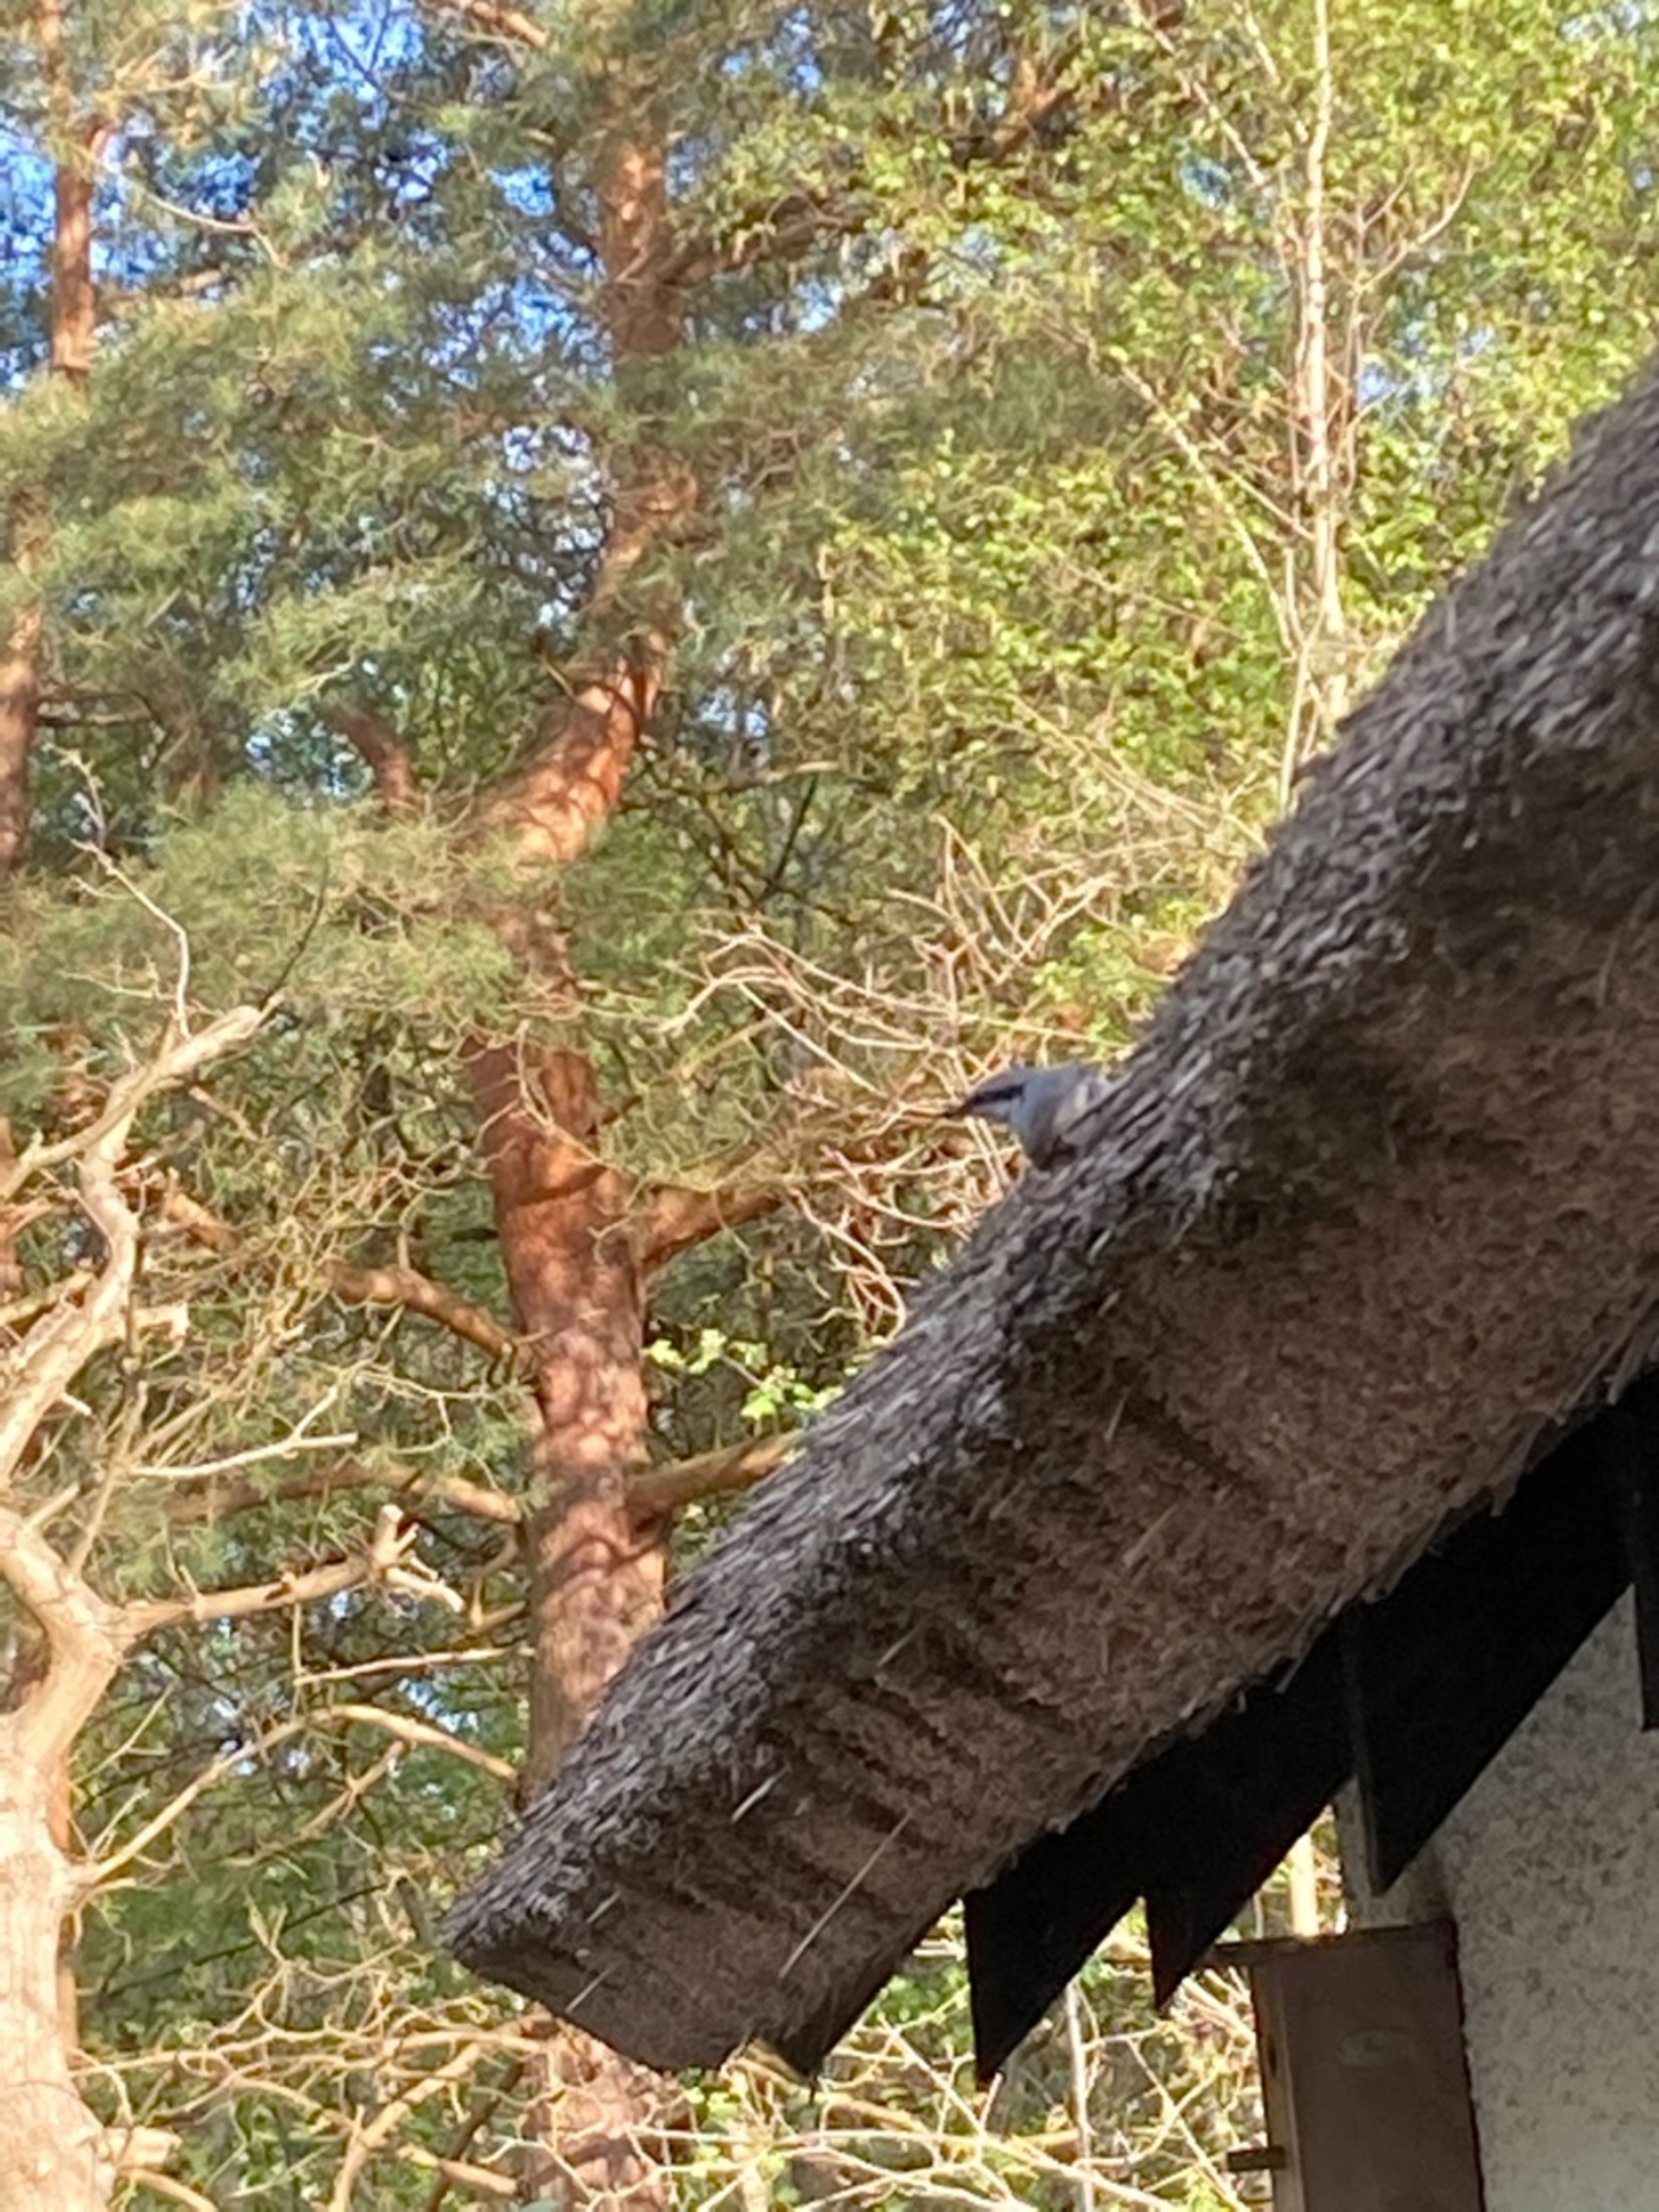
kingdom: Animalia
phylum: Chordata
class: Aves
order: Passeriformes
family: Sittidae
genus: Sitta
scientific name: Sitta europaea
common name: Spætmejse
